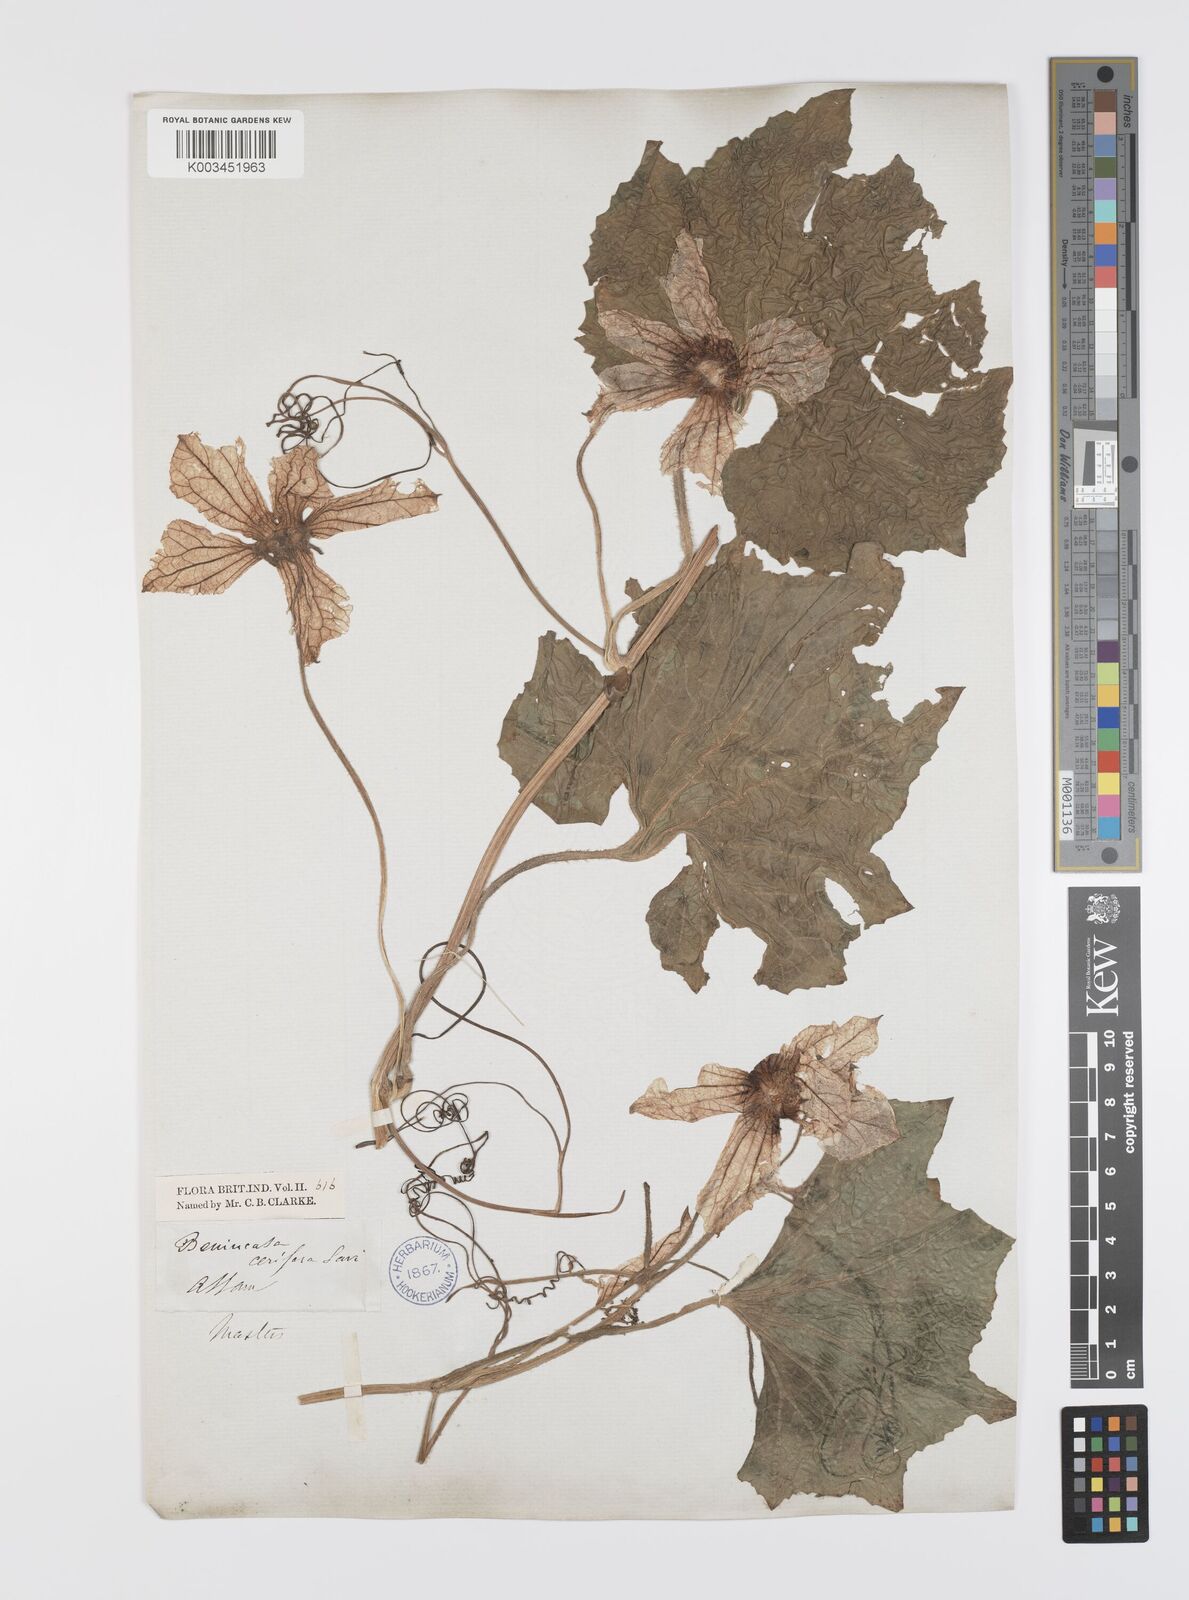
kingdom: Plantae
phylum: Tracheophyta
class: Magnoliopsida
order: Cucurbitales
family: Cucurbitaceae
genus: Benincasa
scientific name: Benincasa hispida
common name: Chinese-watermelon
